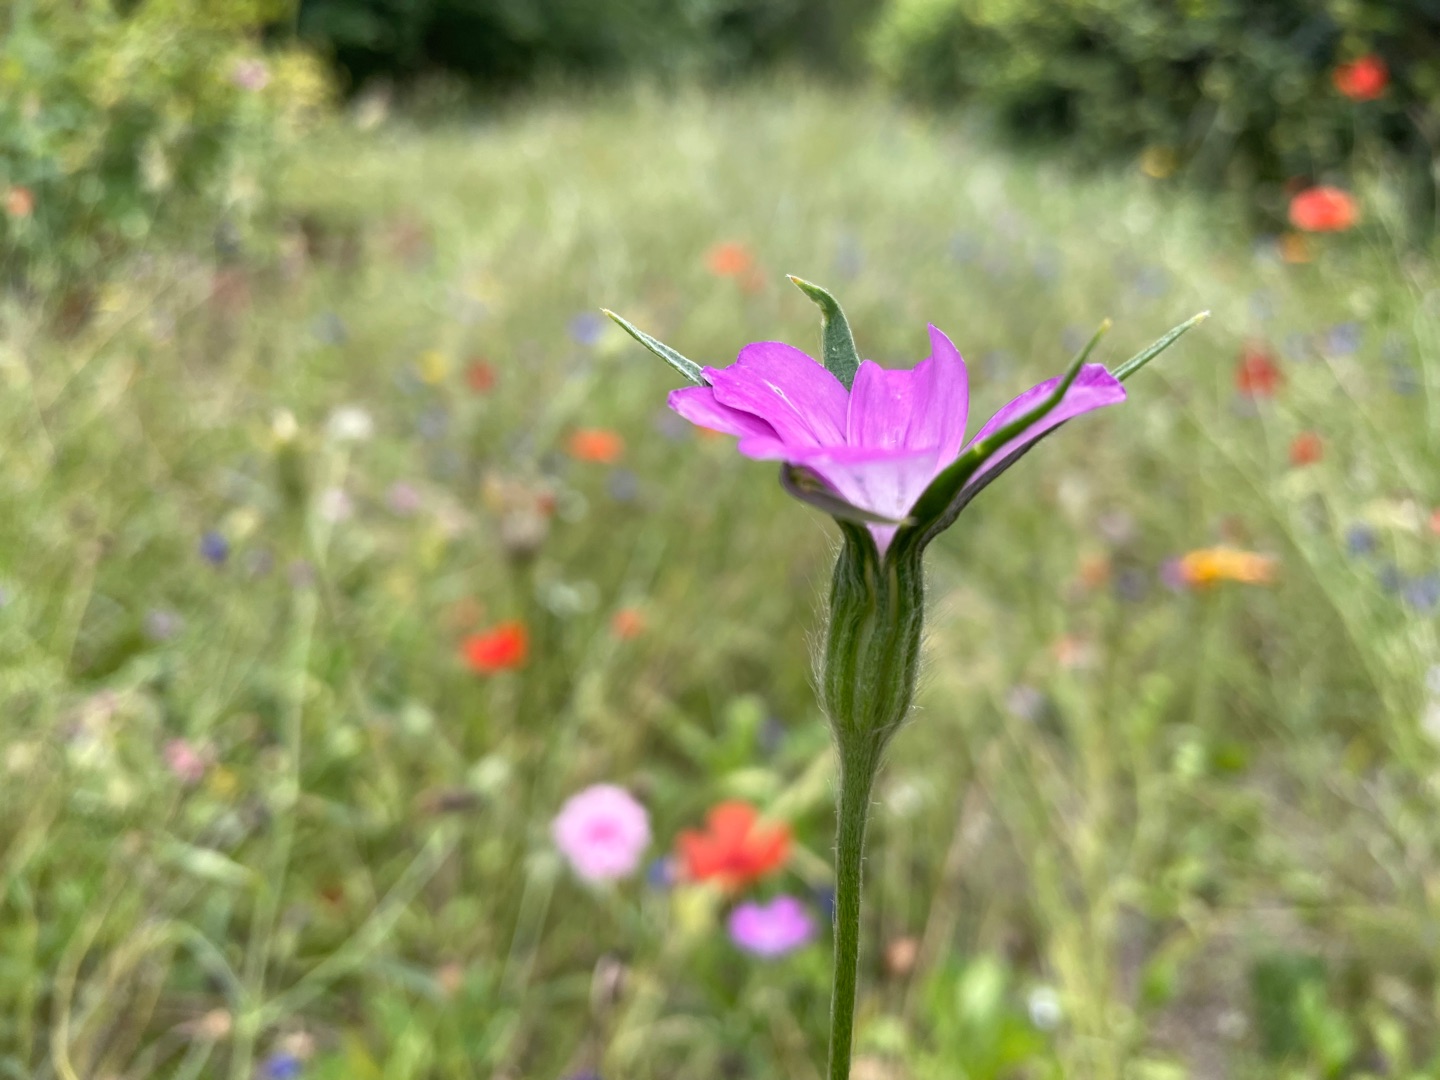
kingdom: Plantae
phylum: Tracheophyta
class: Magnoliopsida
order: Caryophyllales
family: Caryophyllaceae
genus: Agrostemma
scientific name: Agrostemma githago
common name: Klinte
